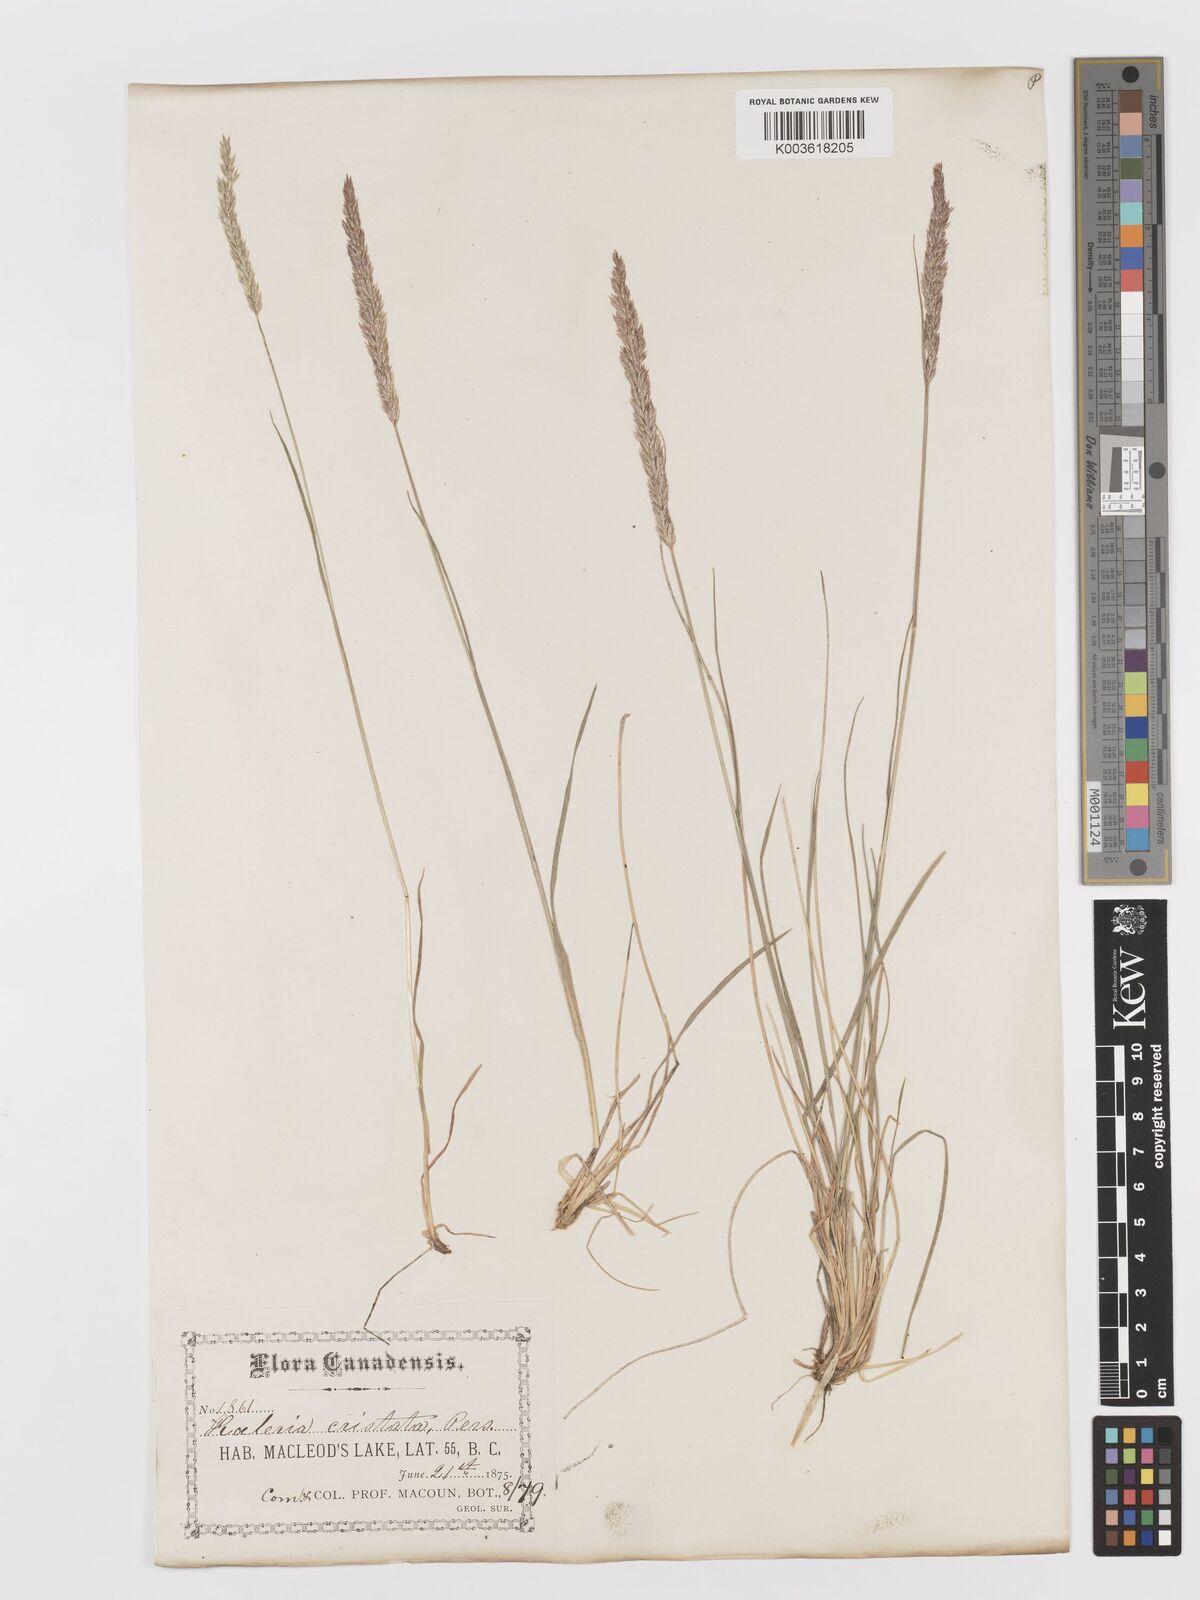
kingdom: Plantae
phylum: Tracheophyta
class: Liliopsida
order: Poales
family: Poaceae
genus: Koeleria
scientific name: Koeleria
